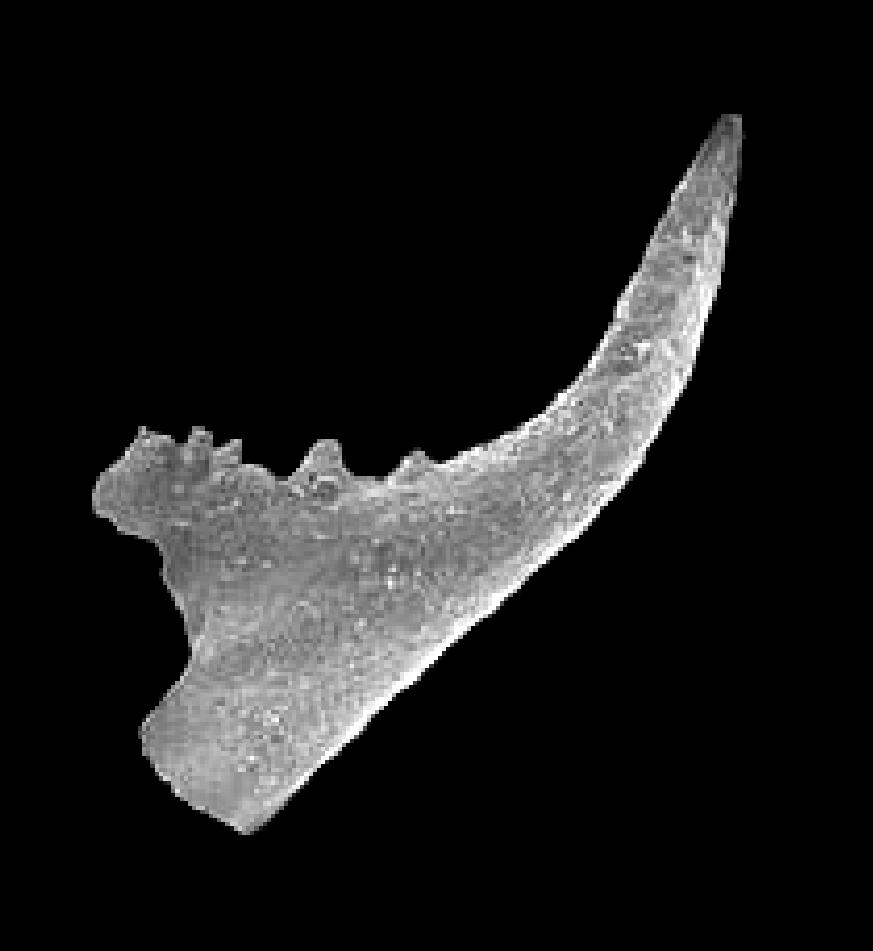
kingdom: Animalia
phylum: Chordata
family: Balognathidae
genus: Trapezognathus
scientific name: Trapezognathus Prioniodina diprion
